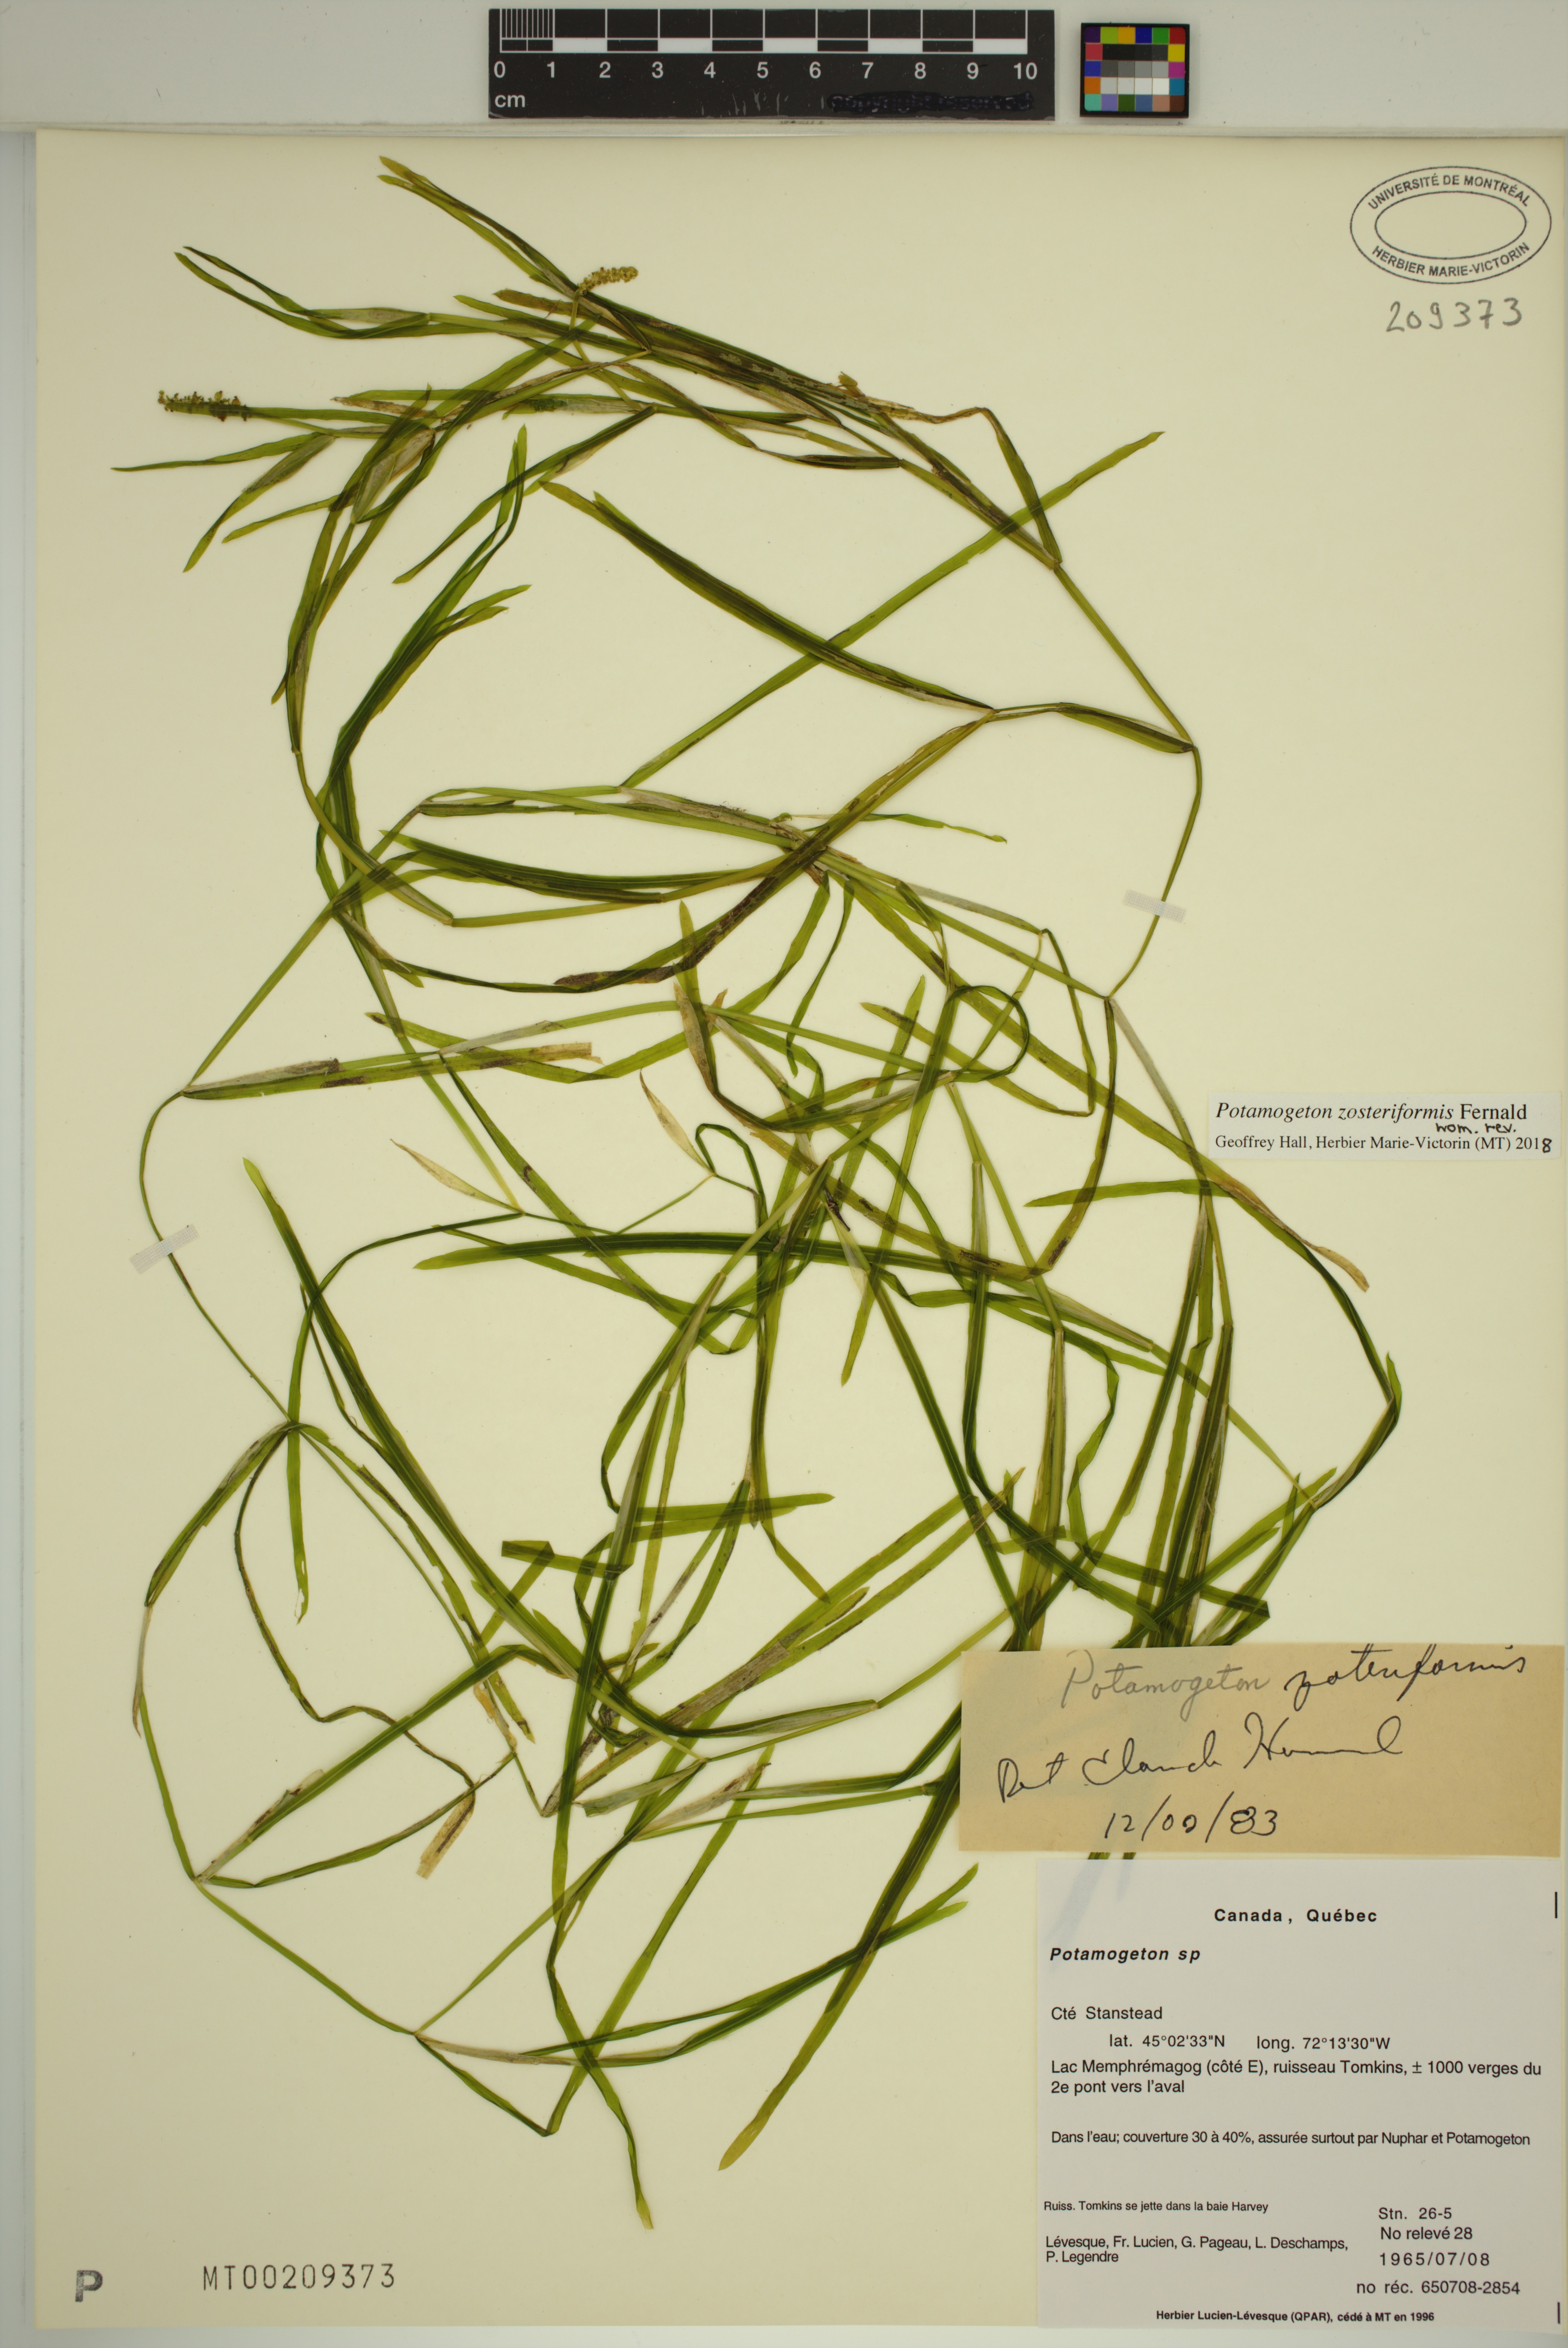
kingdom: Plantae
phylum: Tracheophyta
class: Liliopsida
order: Alismatales
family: Potamogetonaceae
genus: Potamogeton
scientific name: Potamogeton zosteriformis
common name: Eelgrass pondweed
